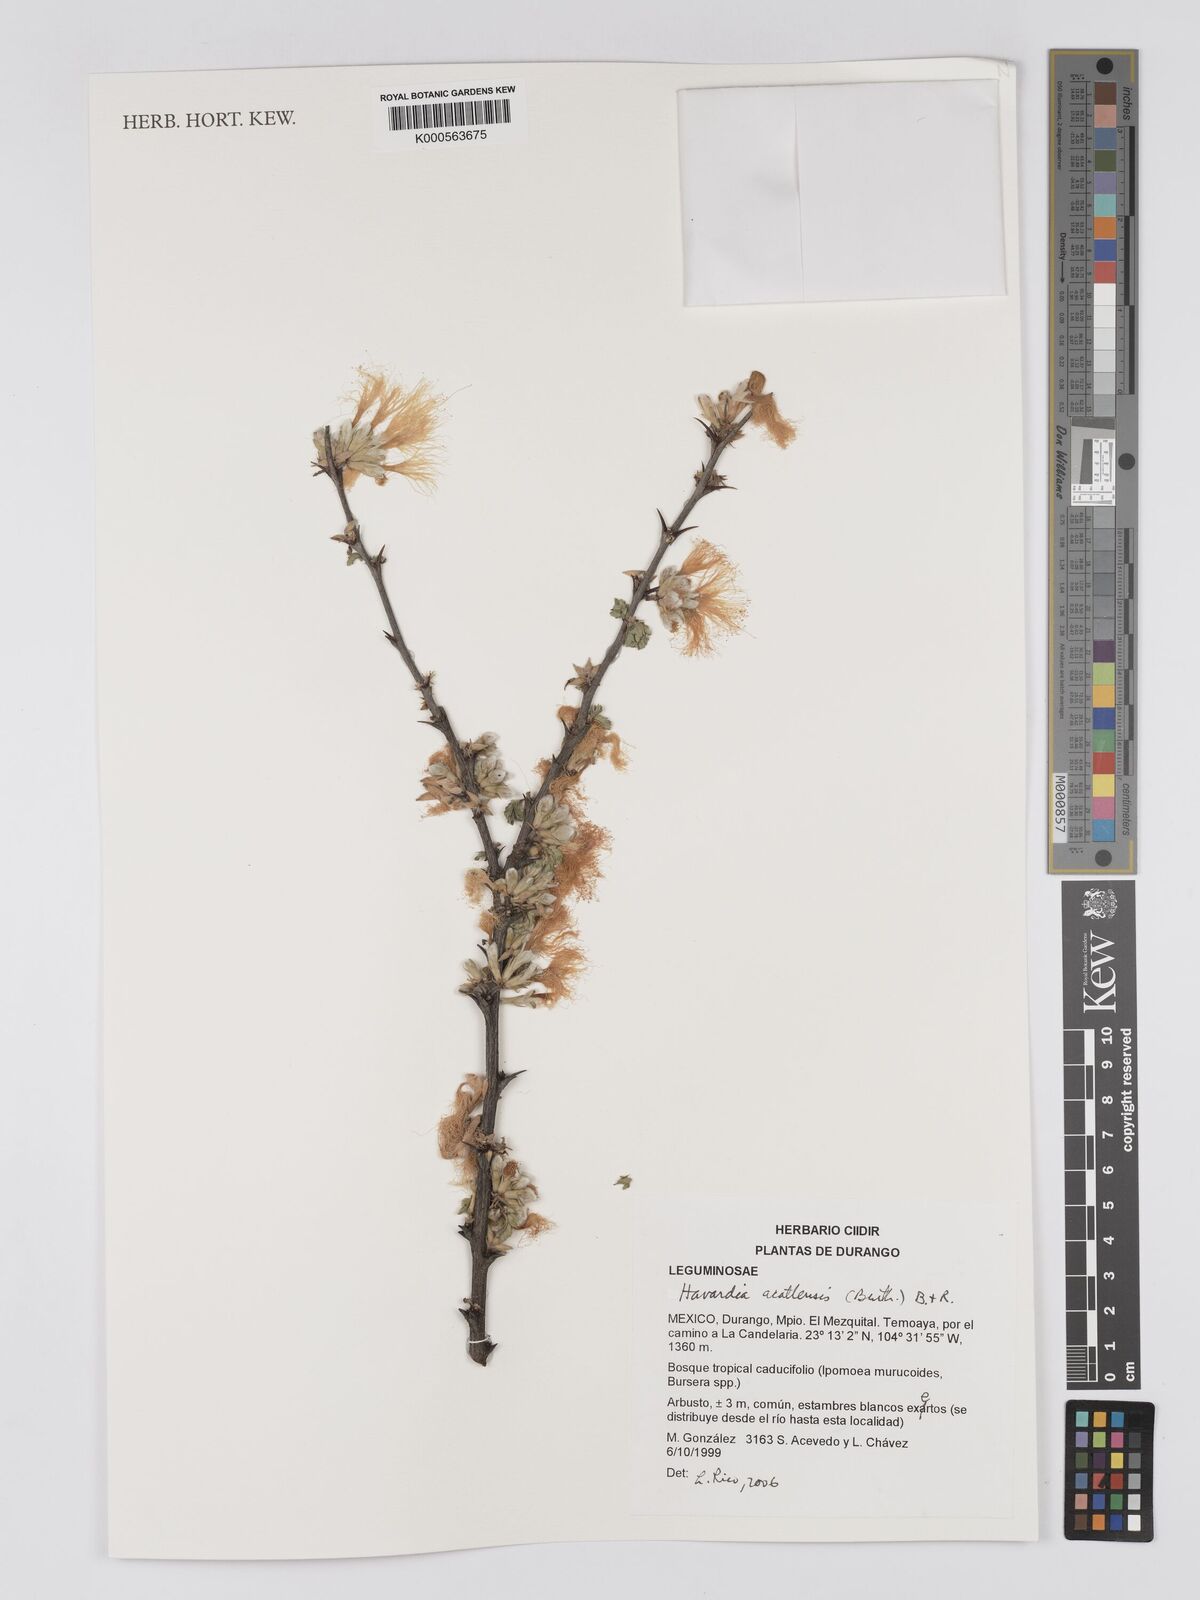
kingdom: Plantae
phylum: Tracheophyta
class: Magnoliopsida
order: Fabales
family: Fabaceae
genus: Havardia
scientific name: Havardia acatlensis
